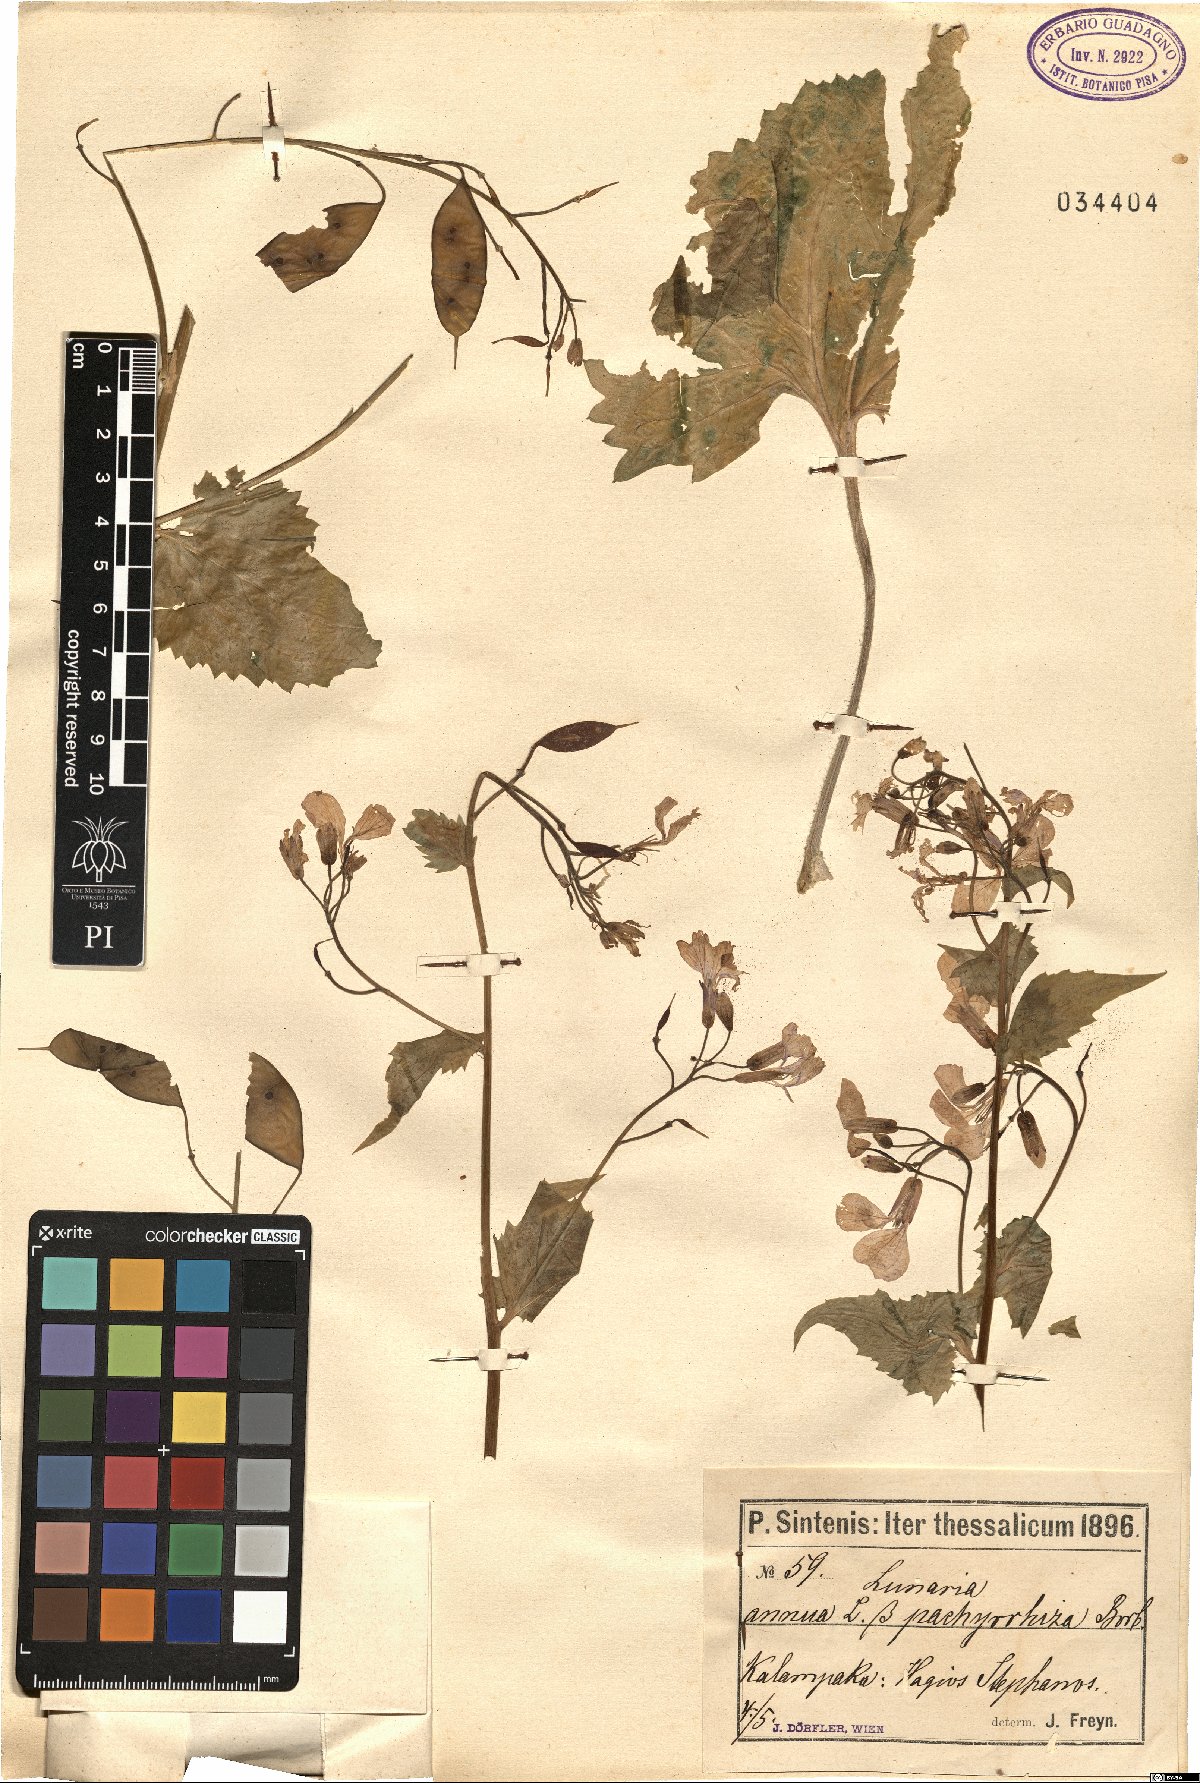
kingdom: Plantae
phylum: Tracheophyta
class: Magnoliopsida
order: Brassicales
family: Brassicaceae
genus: Lunaria
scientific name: Lunaria annua
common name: Honesty
